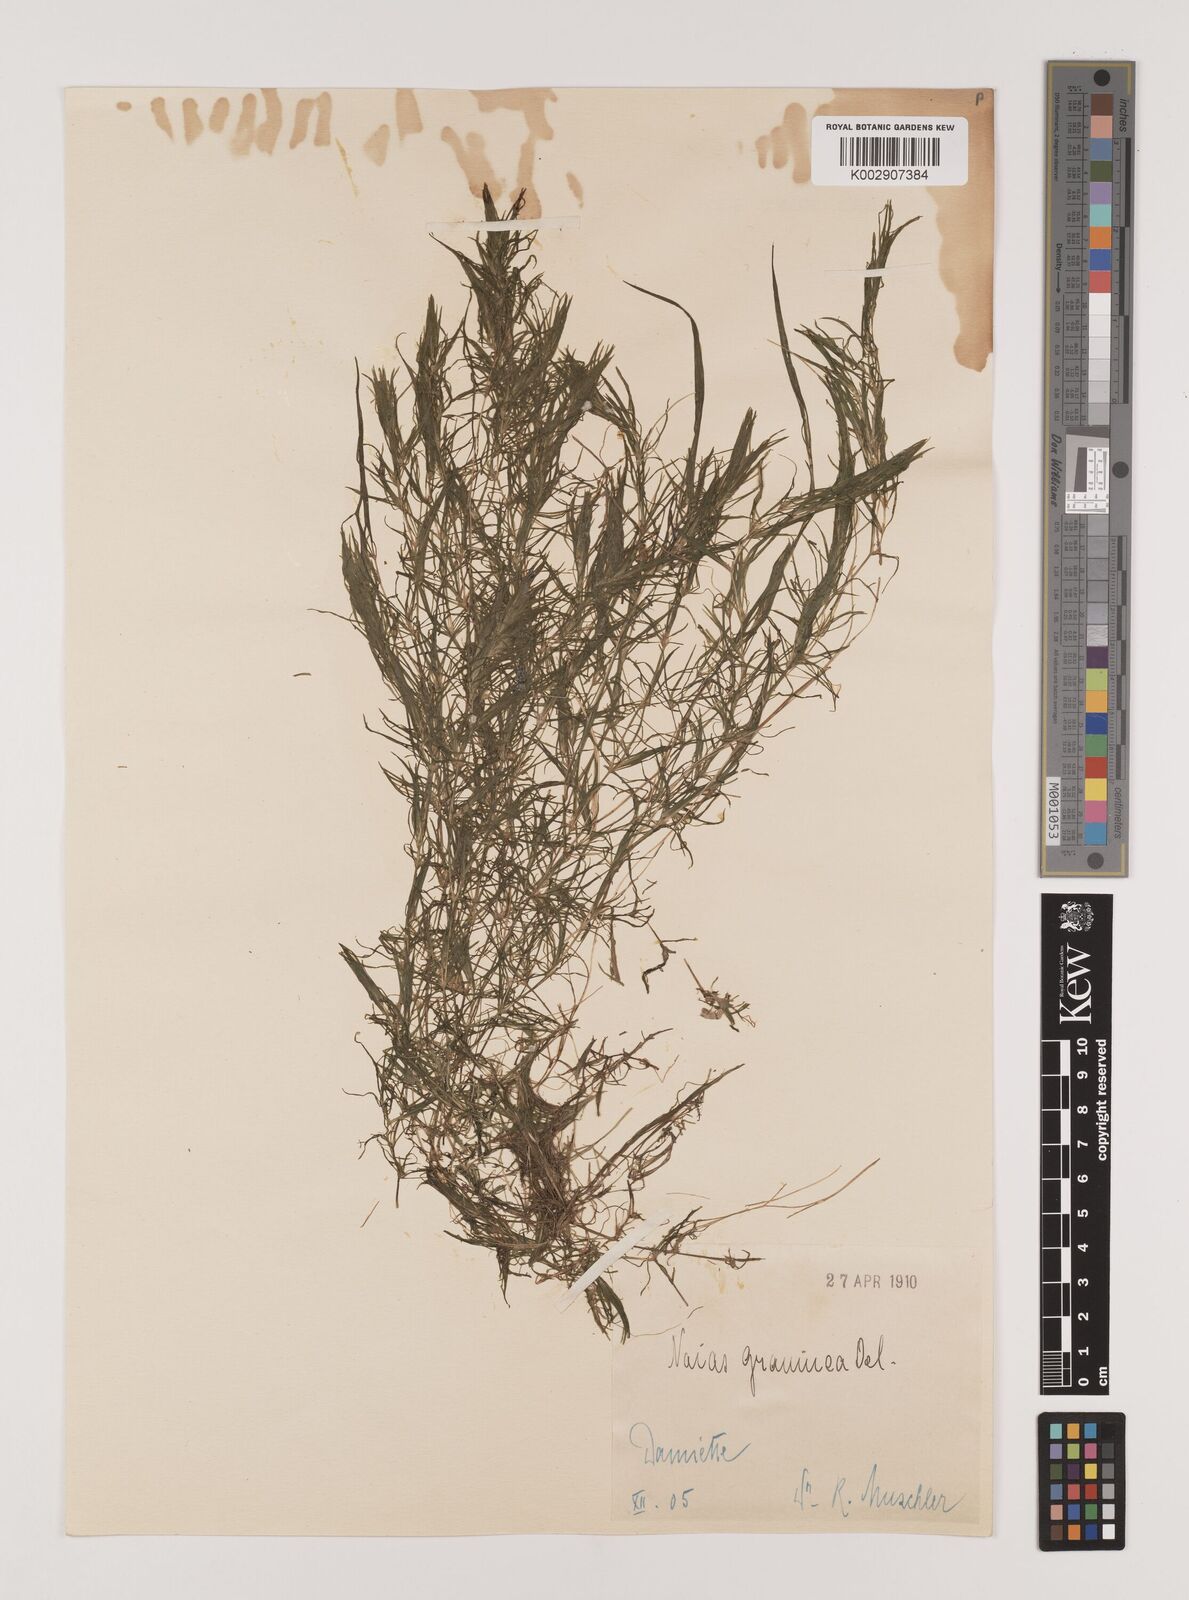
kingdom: Plantae
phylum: Tracheophyta
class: Liliopsida
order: Alismatales
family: Hydrocharitaceae
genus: Najas
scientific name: Najas graminea
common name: Ricefield waternymph
